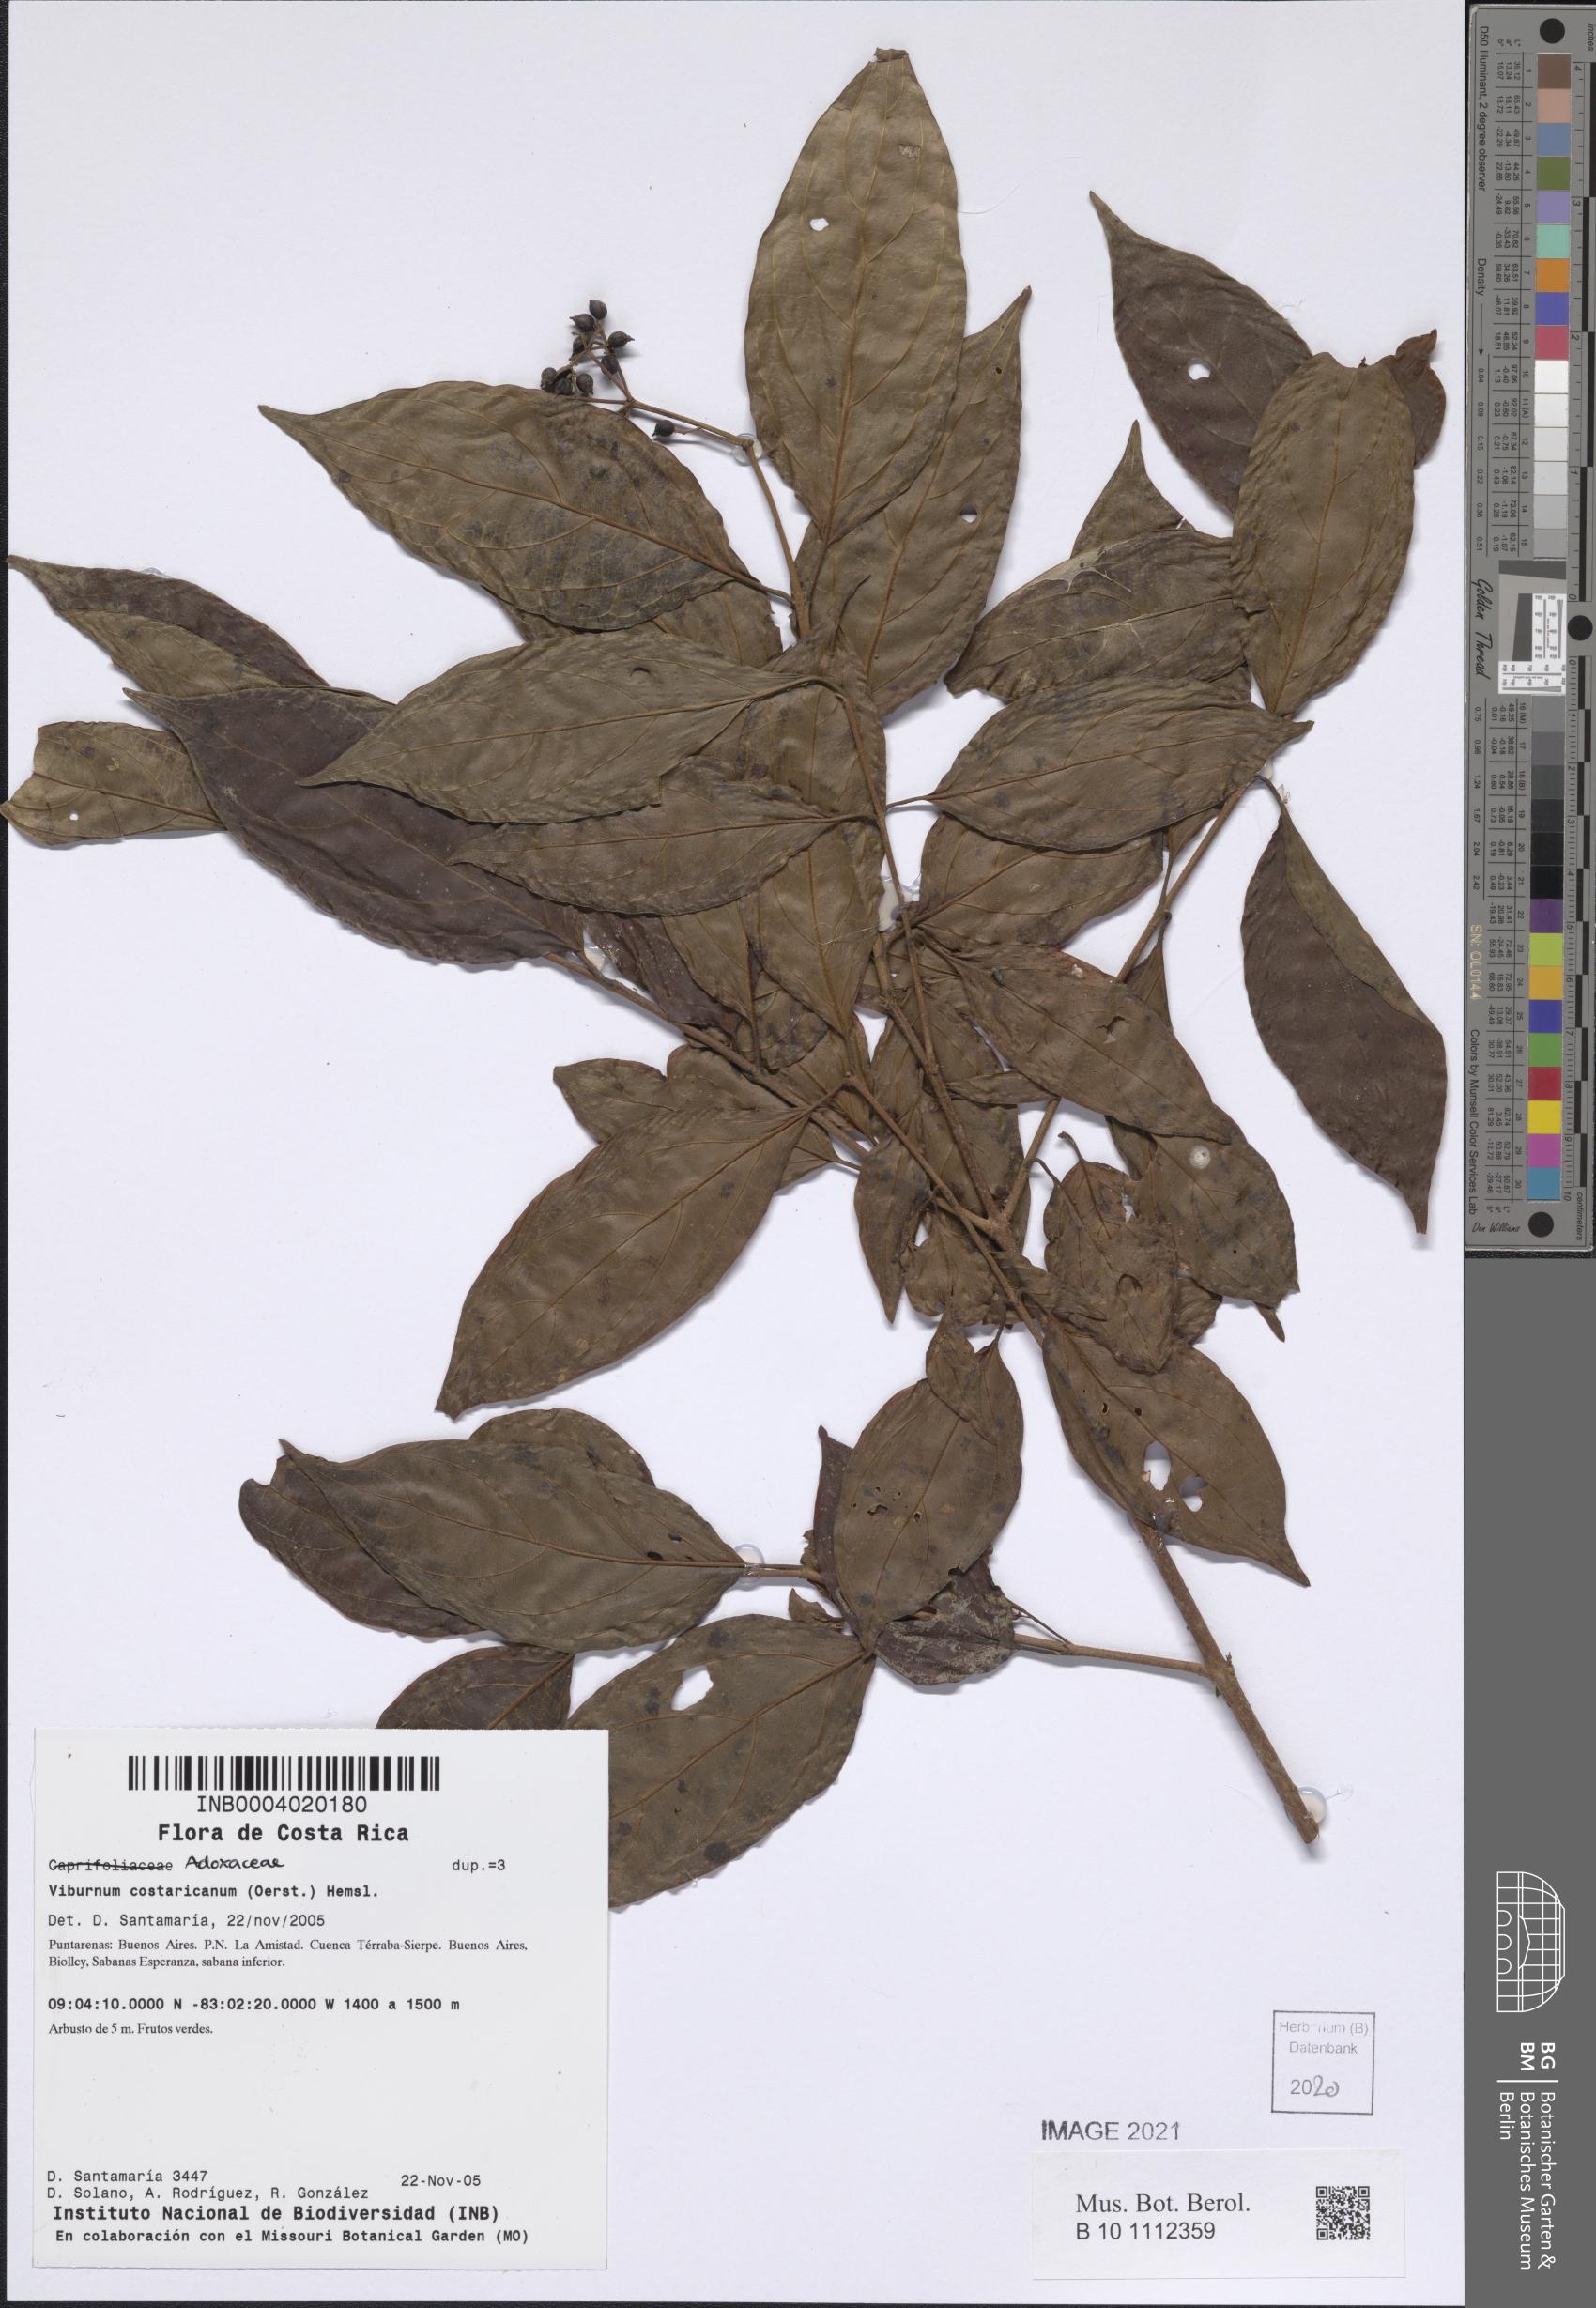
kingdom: Plantae
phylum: Tracheophyta
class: Magnoliopsida
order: Dipsacales
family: Viburnaceae
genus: Viburnum
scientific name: Viburnum costaricanum
